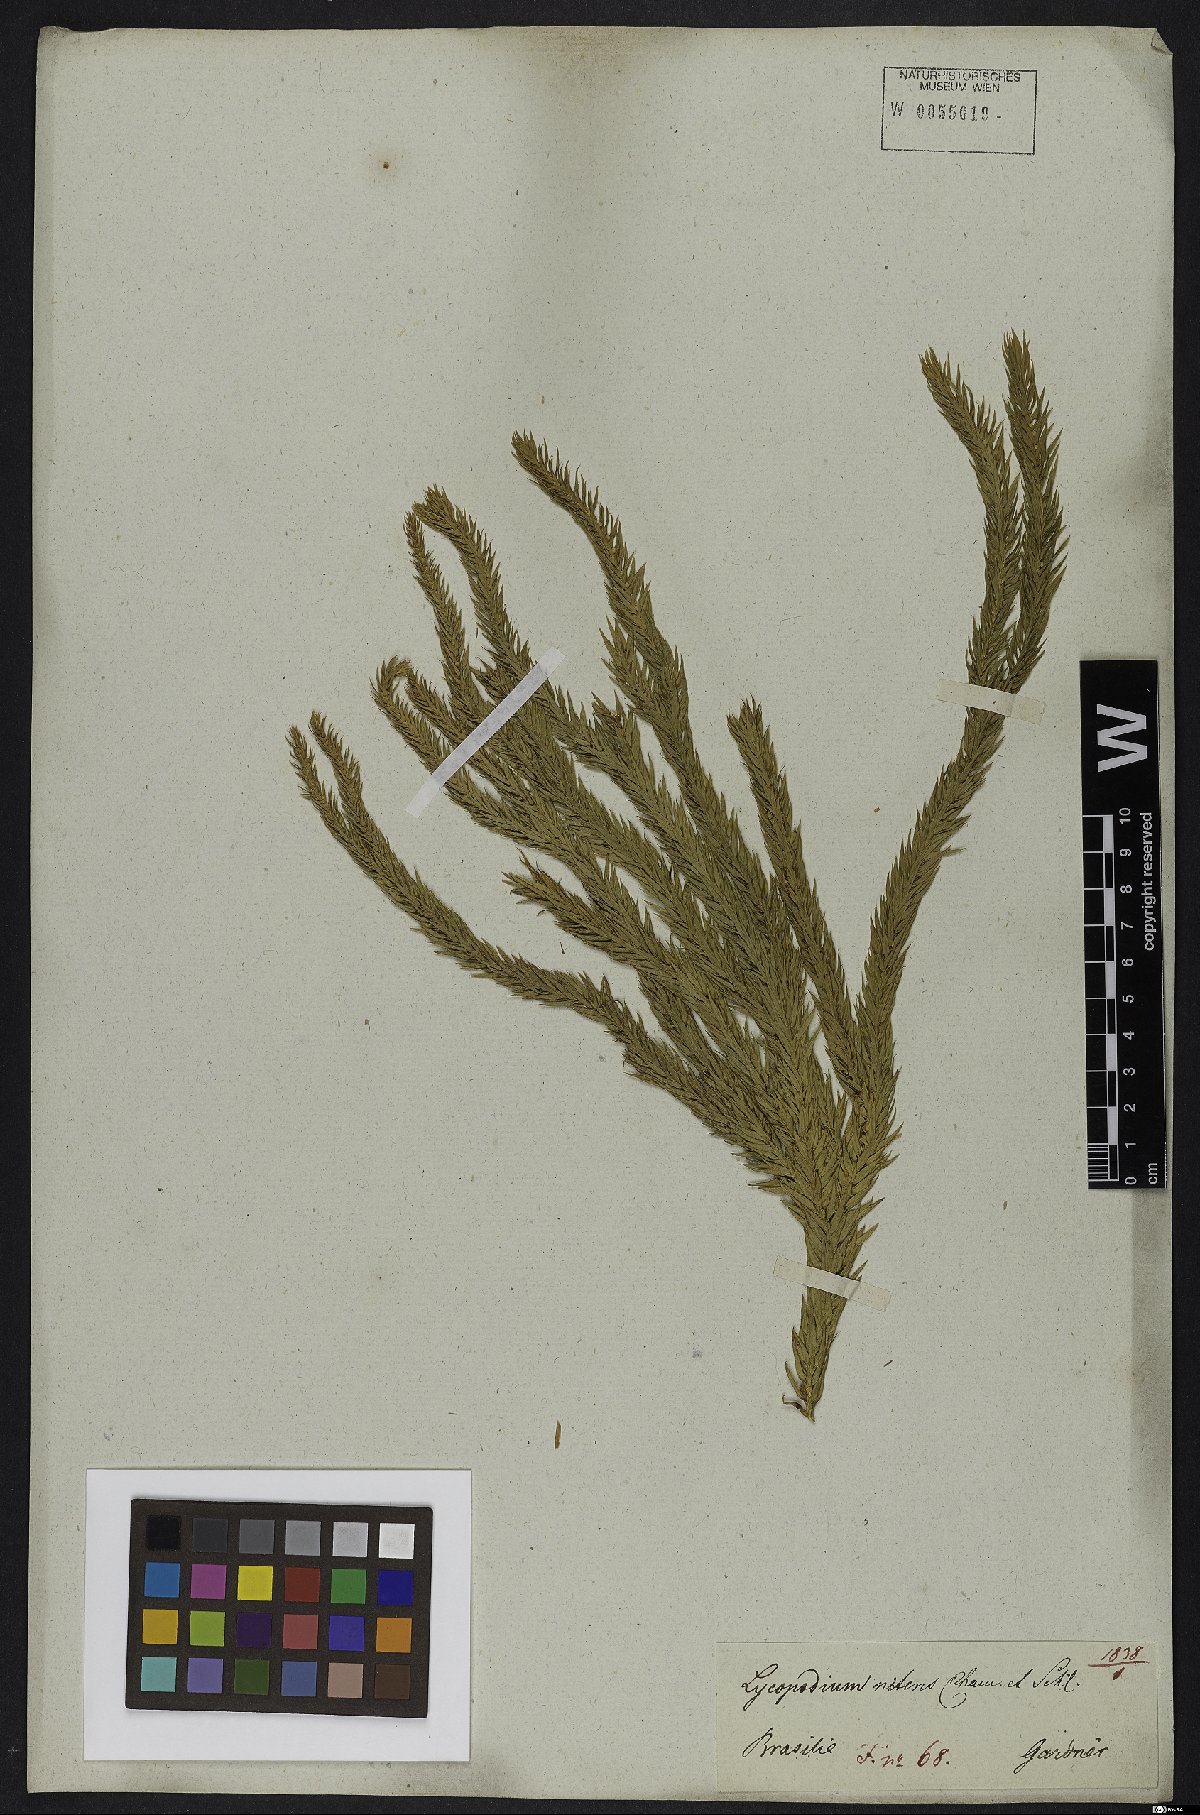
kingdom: Plantae
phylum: Tracheophyta
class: Lycopodiopsida
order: Lycopodiales
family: Lycopodiaceae
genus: Phlegmariurus
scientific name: Phlegmariurus taxifolius
